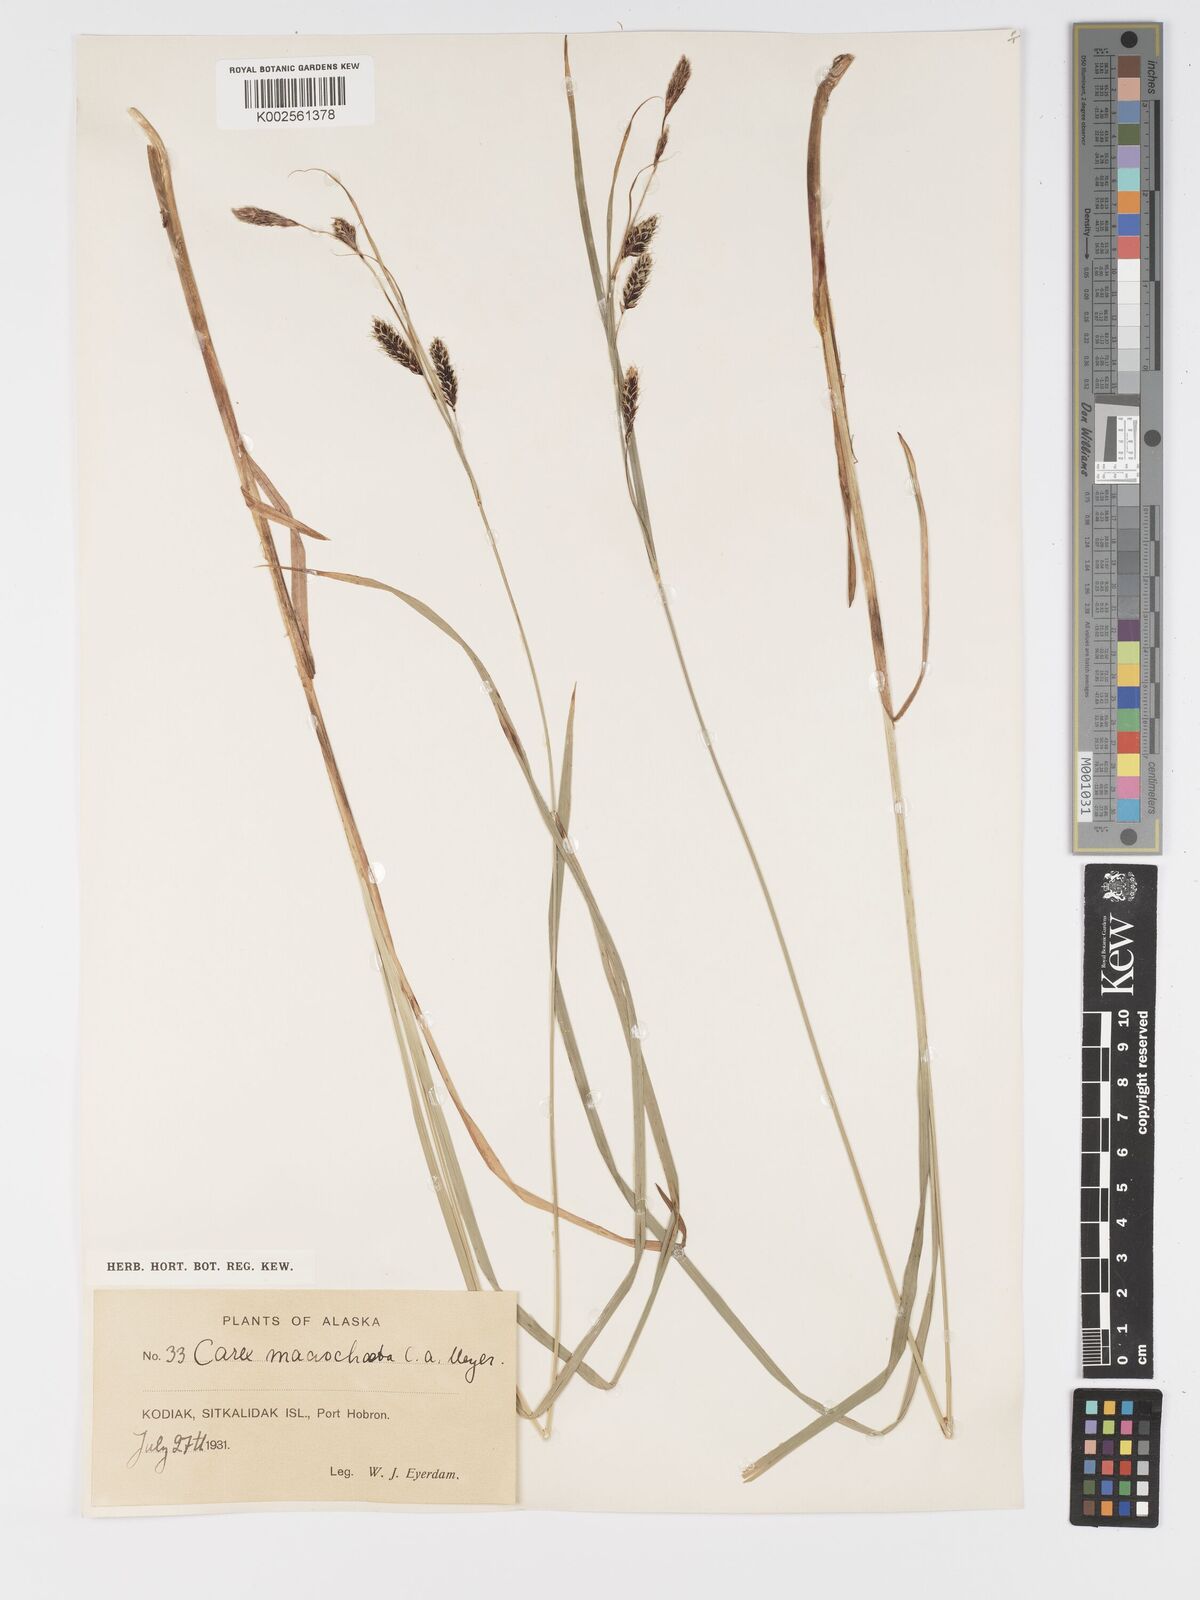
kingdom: Plantae
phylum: Tracheophyta
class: Liliopsida
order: Poales
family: Cyperaceae
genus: Carex
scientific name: Carex macrochaeta
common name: Alaska large awn sedge
